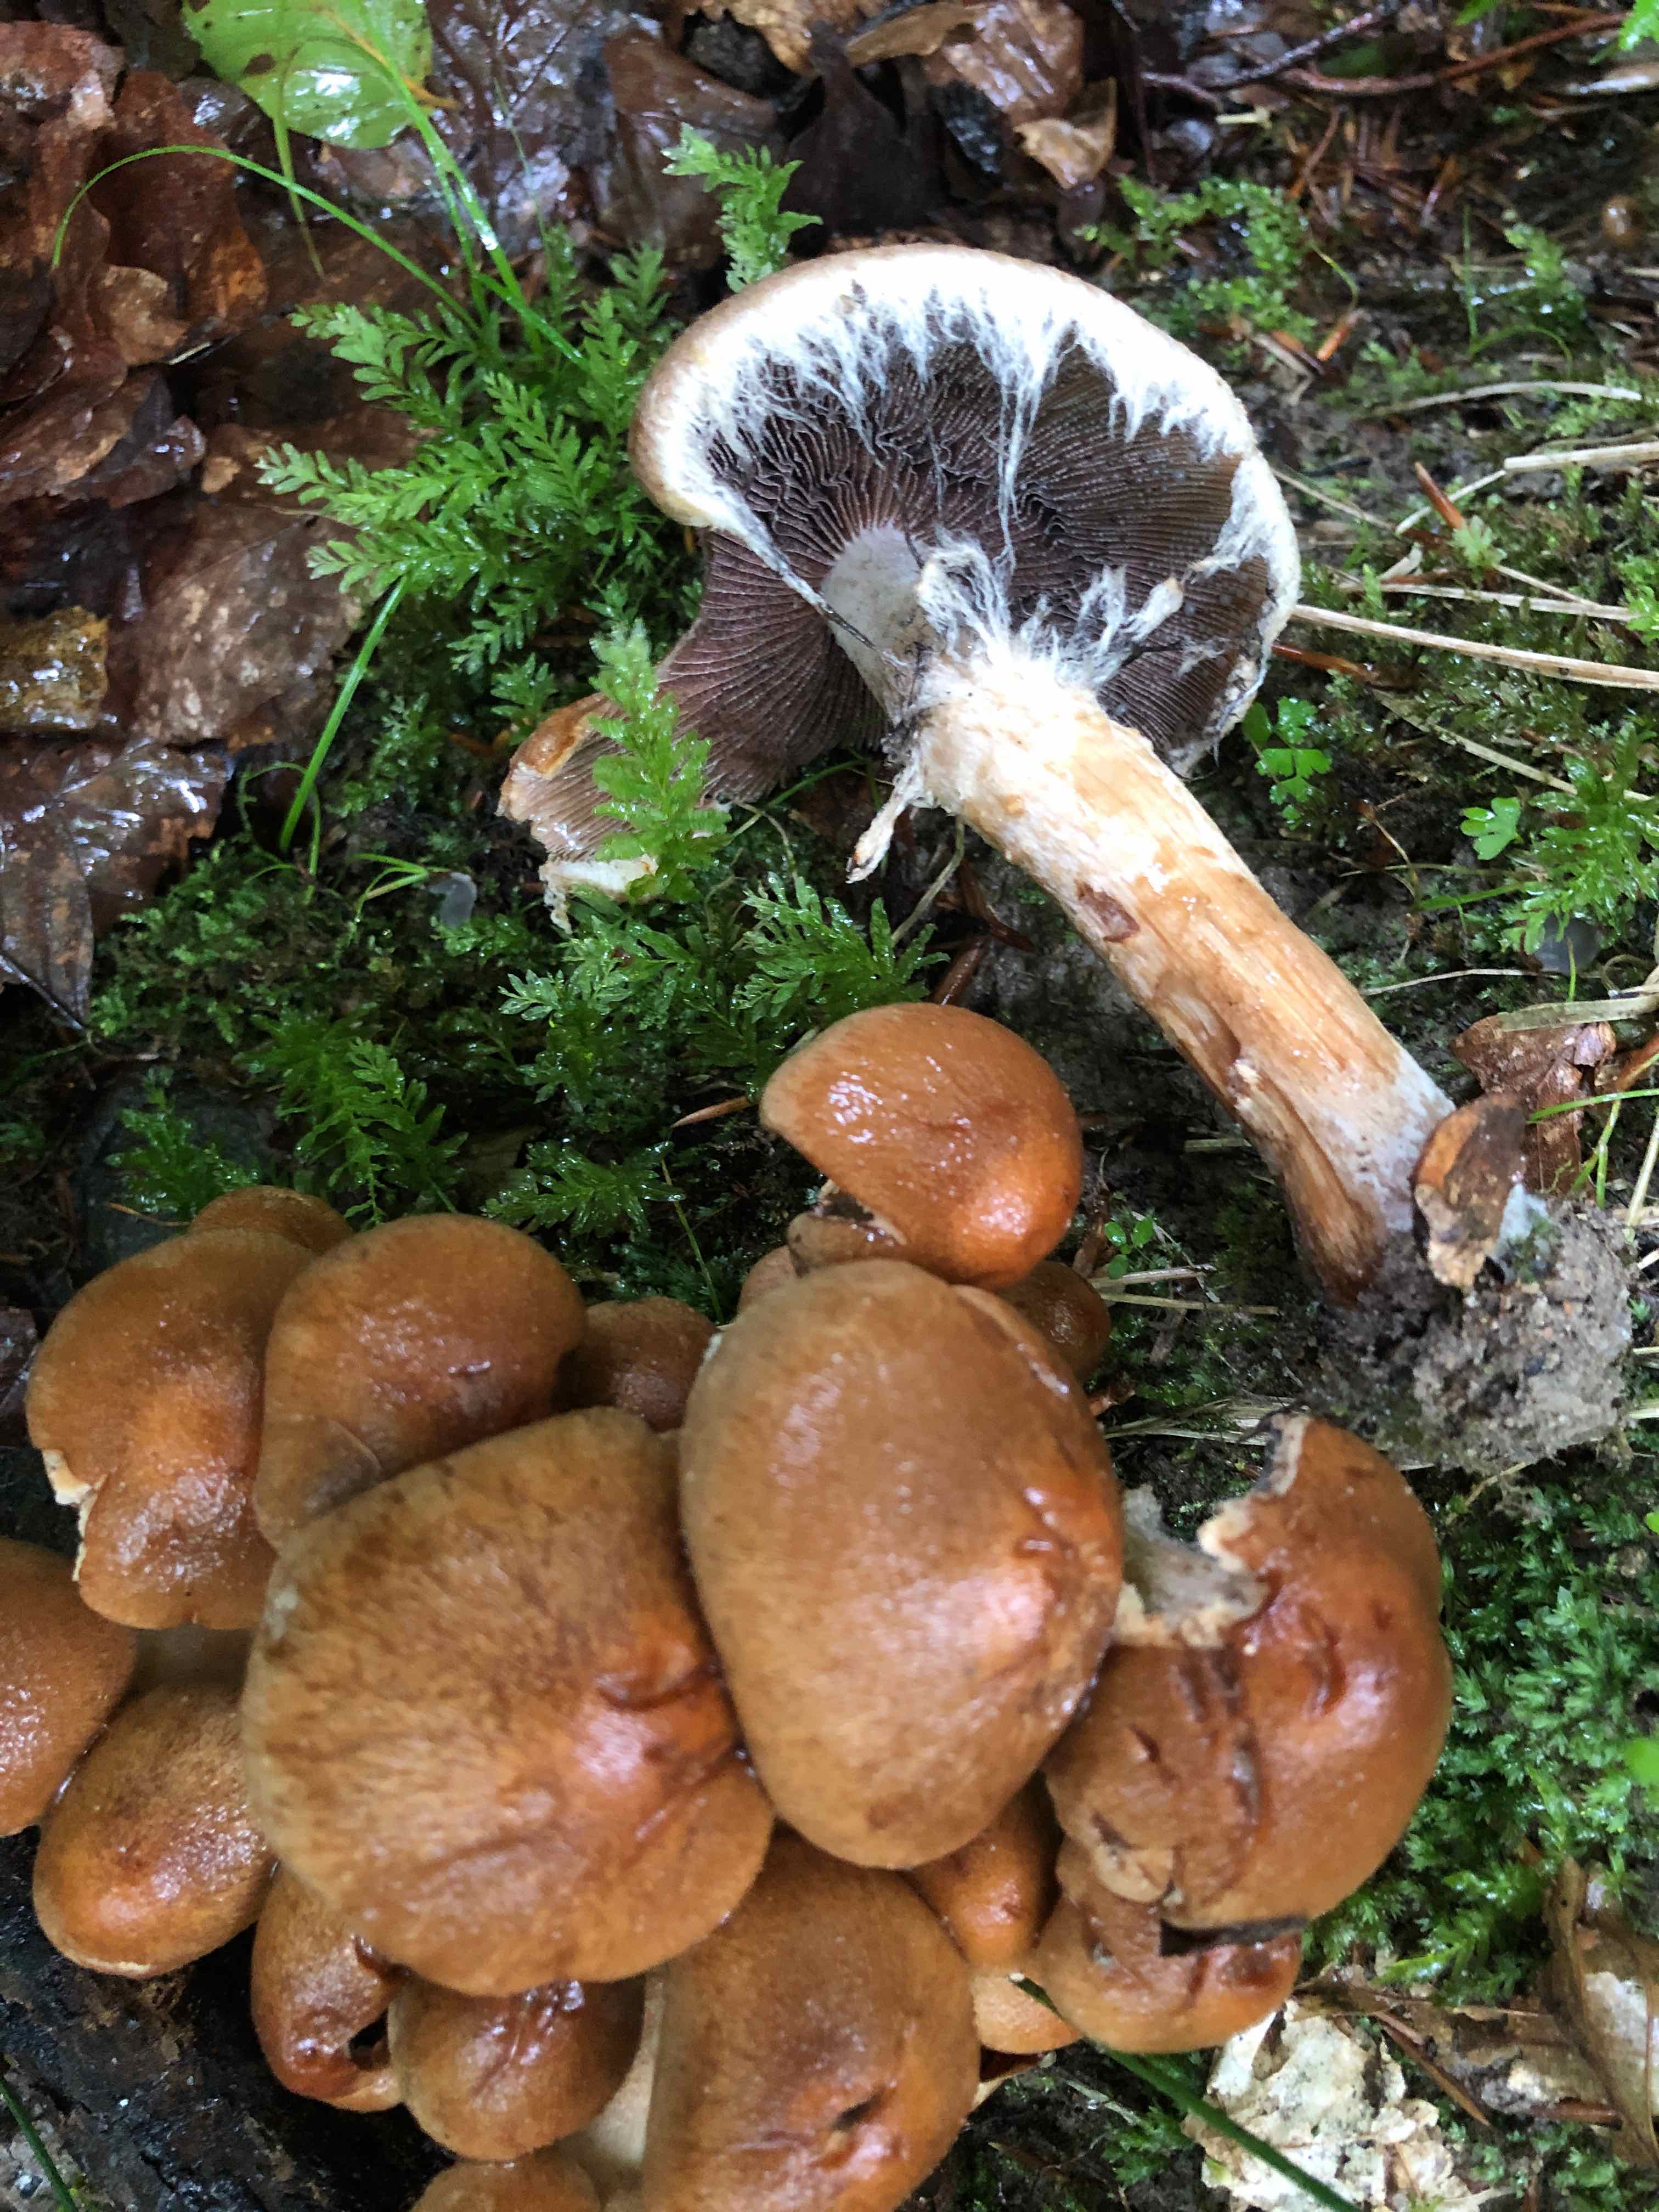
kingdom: Fungi
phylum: Basidiomycota
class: Agaricomycetes
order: Agaricales
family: Psathyrellaceae
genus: Lacrymaria
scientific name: Lacrymaria lacrymabunda
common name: grædende mørkhat
